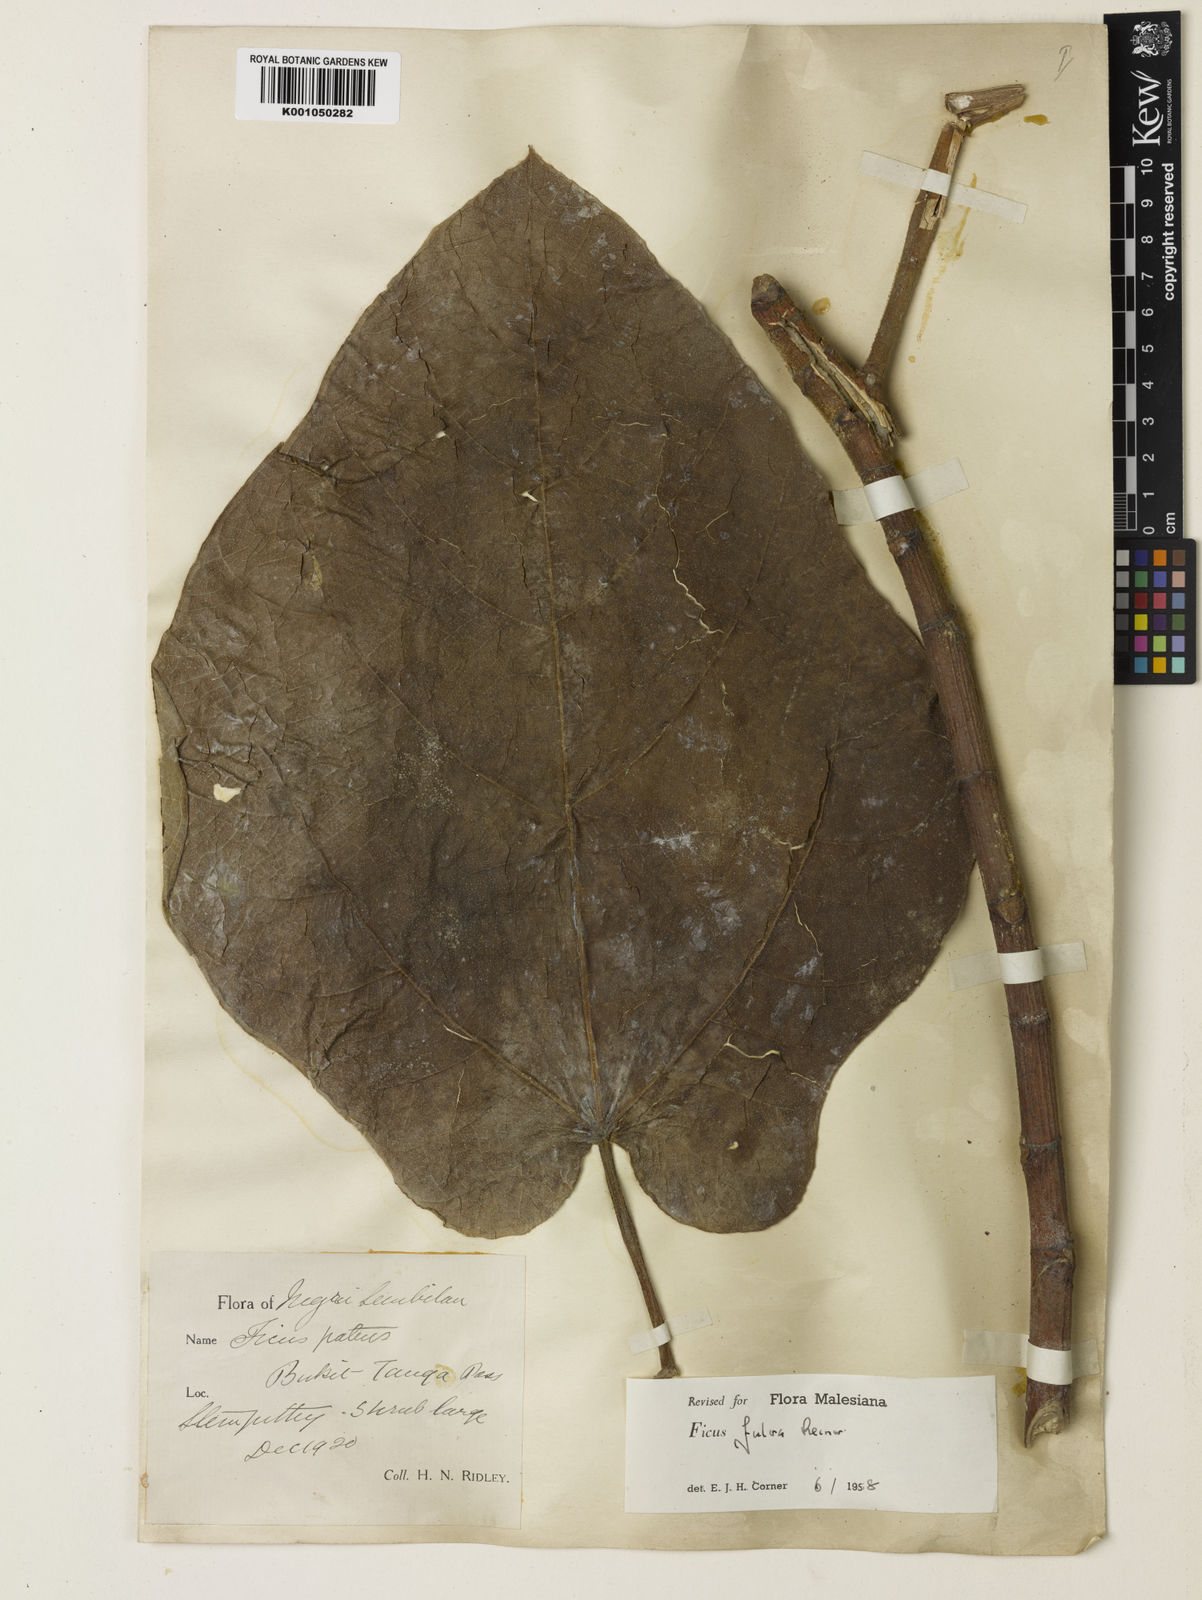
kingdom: Plantae
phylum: Tracheophyta
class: Magnoliopsida
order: Rosales
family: Moraceae
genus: Ficus
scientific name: Ficus fulva
